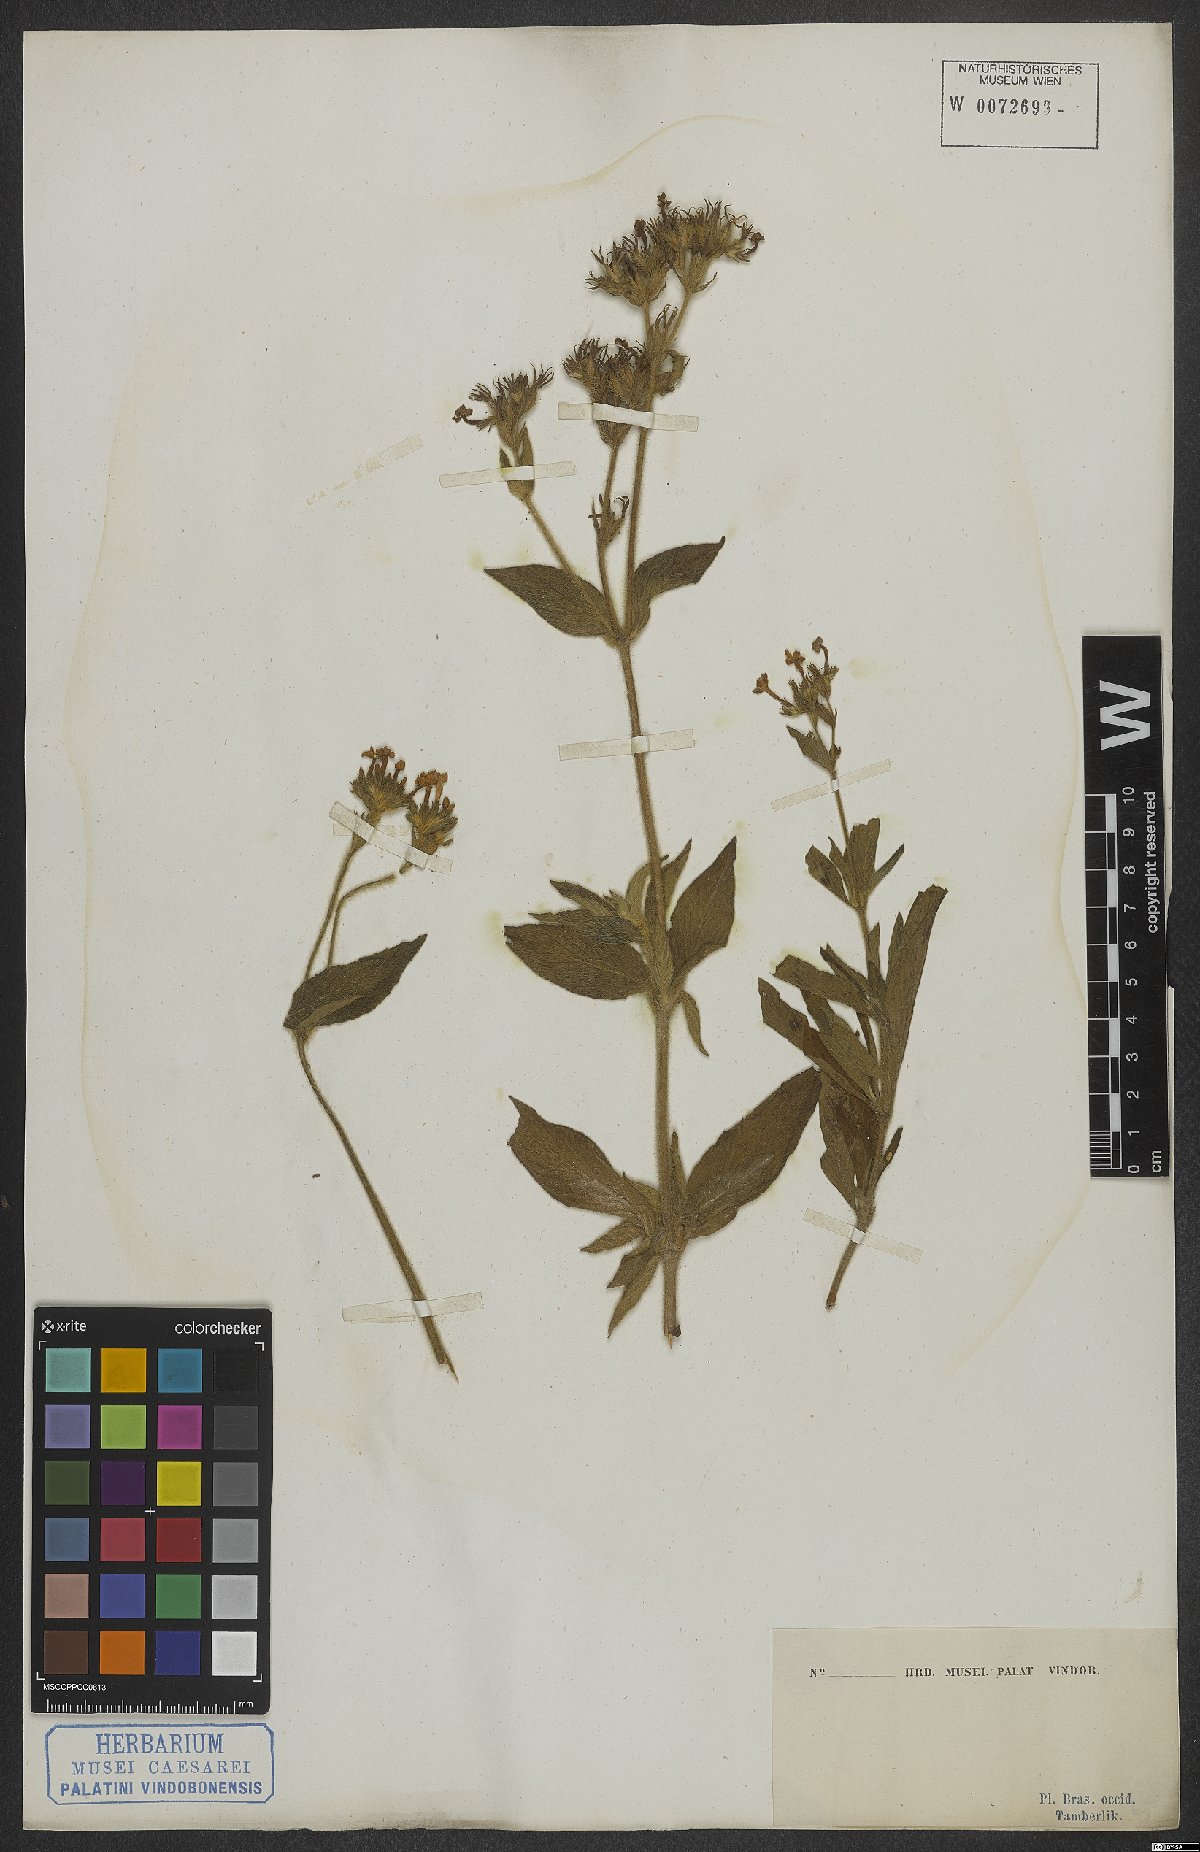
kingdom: Plantae
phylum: Tracheophyta
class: Magnoliopsida
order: Gentianales
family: Rubiaceae
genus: Sipanea
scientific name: Sipanea
